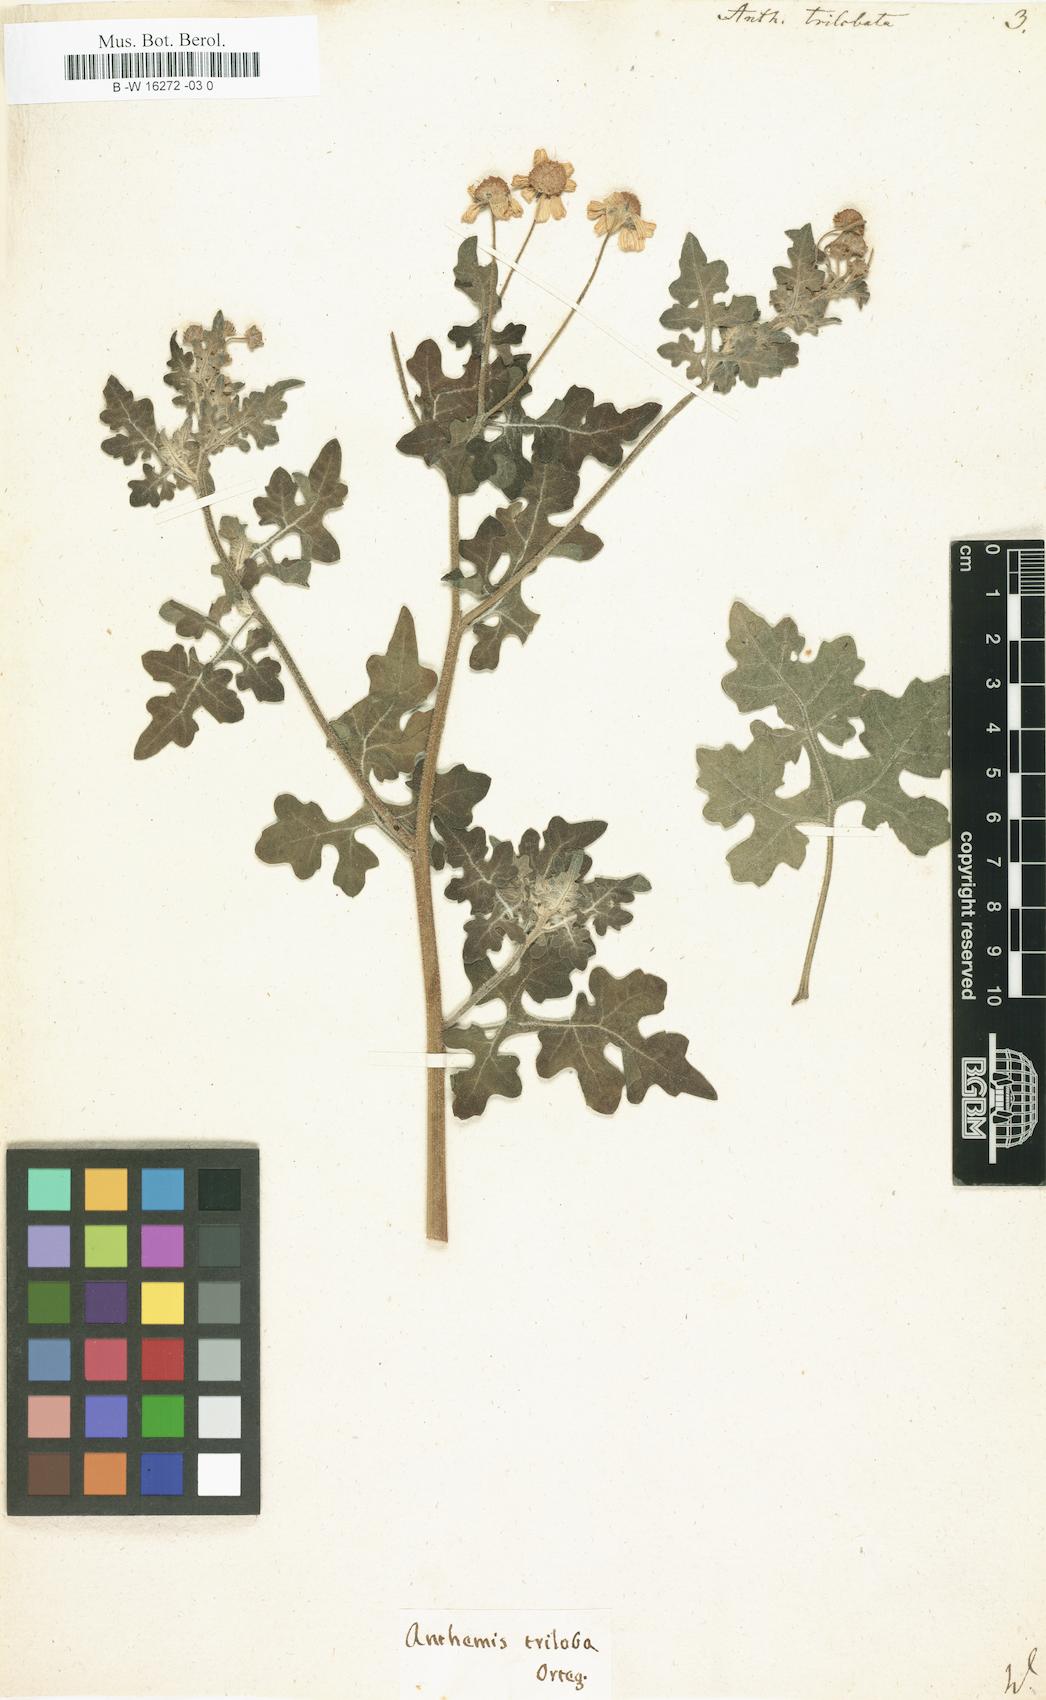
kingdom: Plantae
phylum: Tracheophyta
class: Magnoliopsida
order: Asterales
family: Asteraceae
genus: Zaluzania
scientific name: Zaluzania triloba
